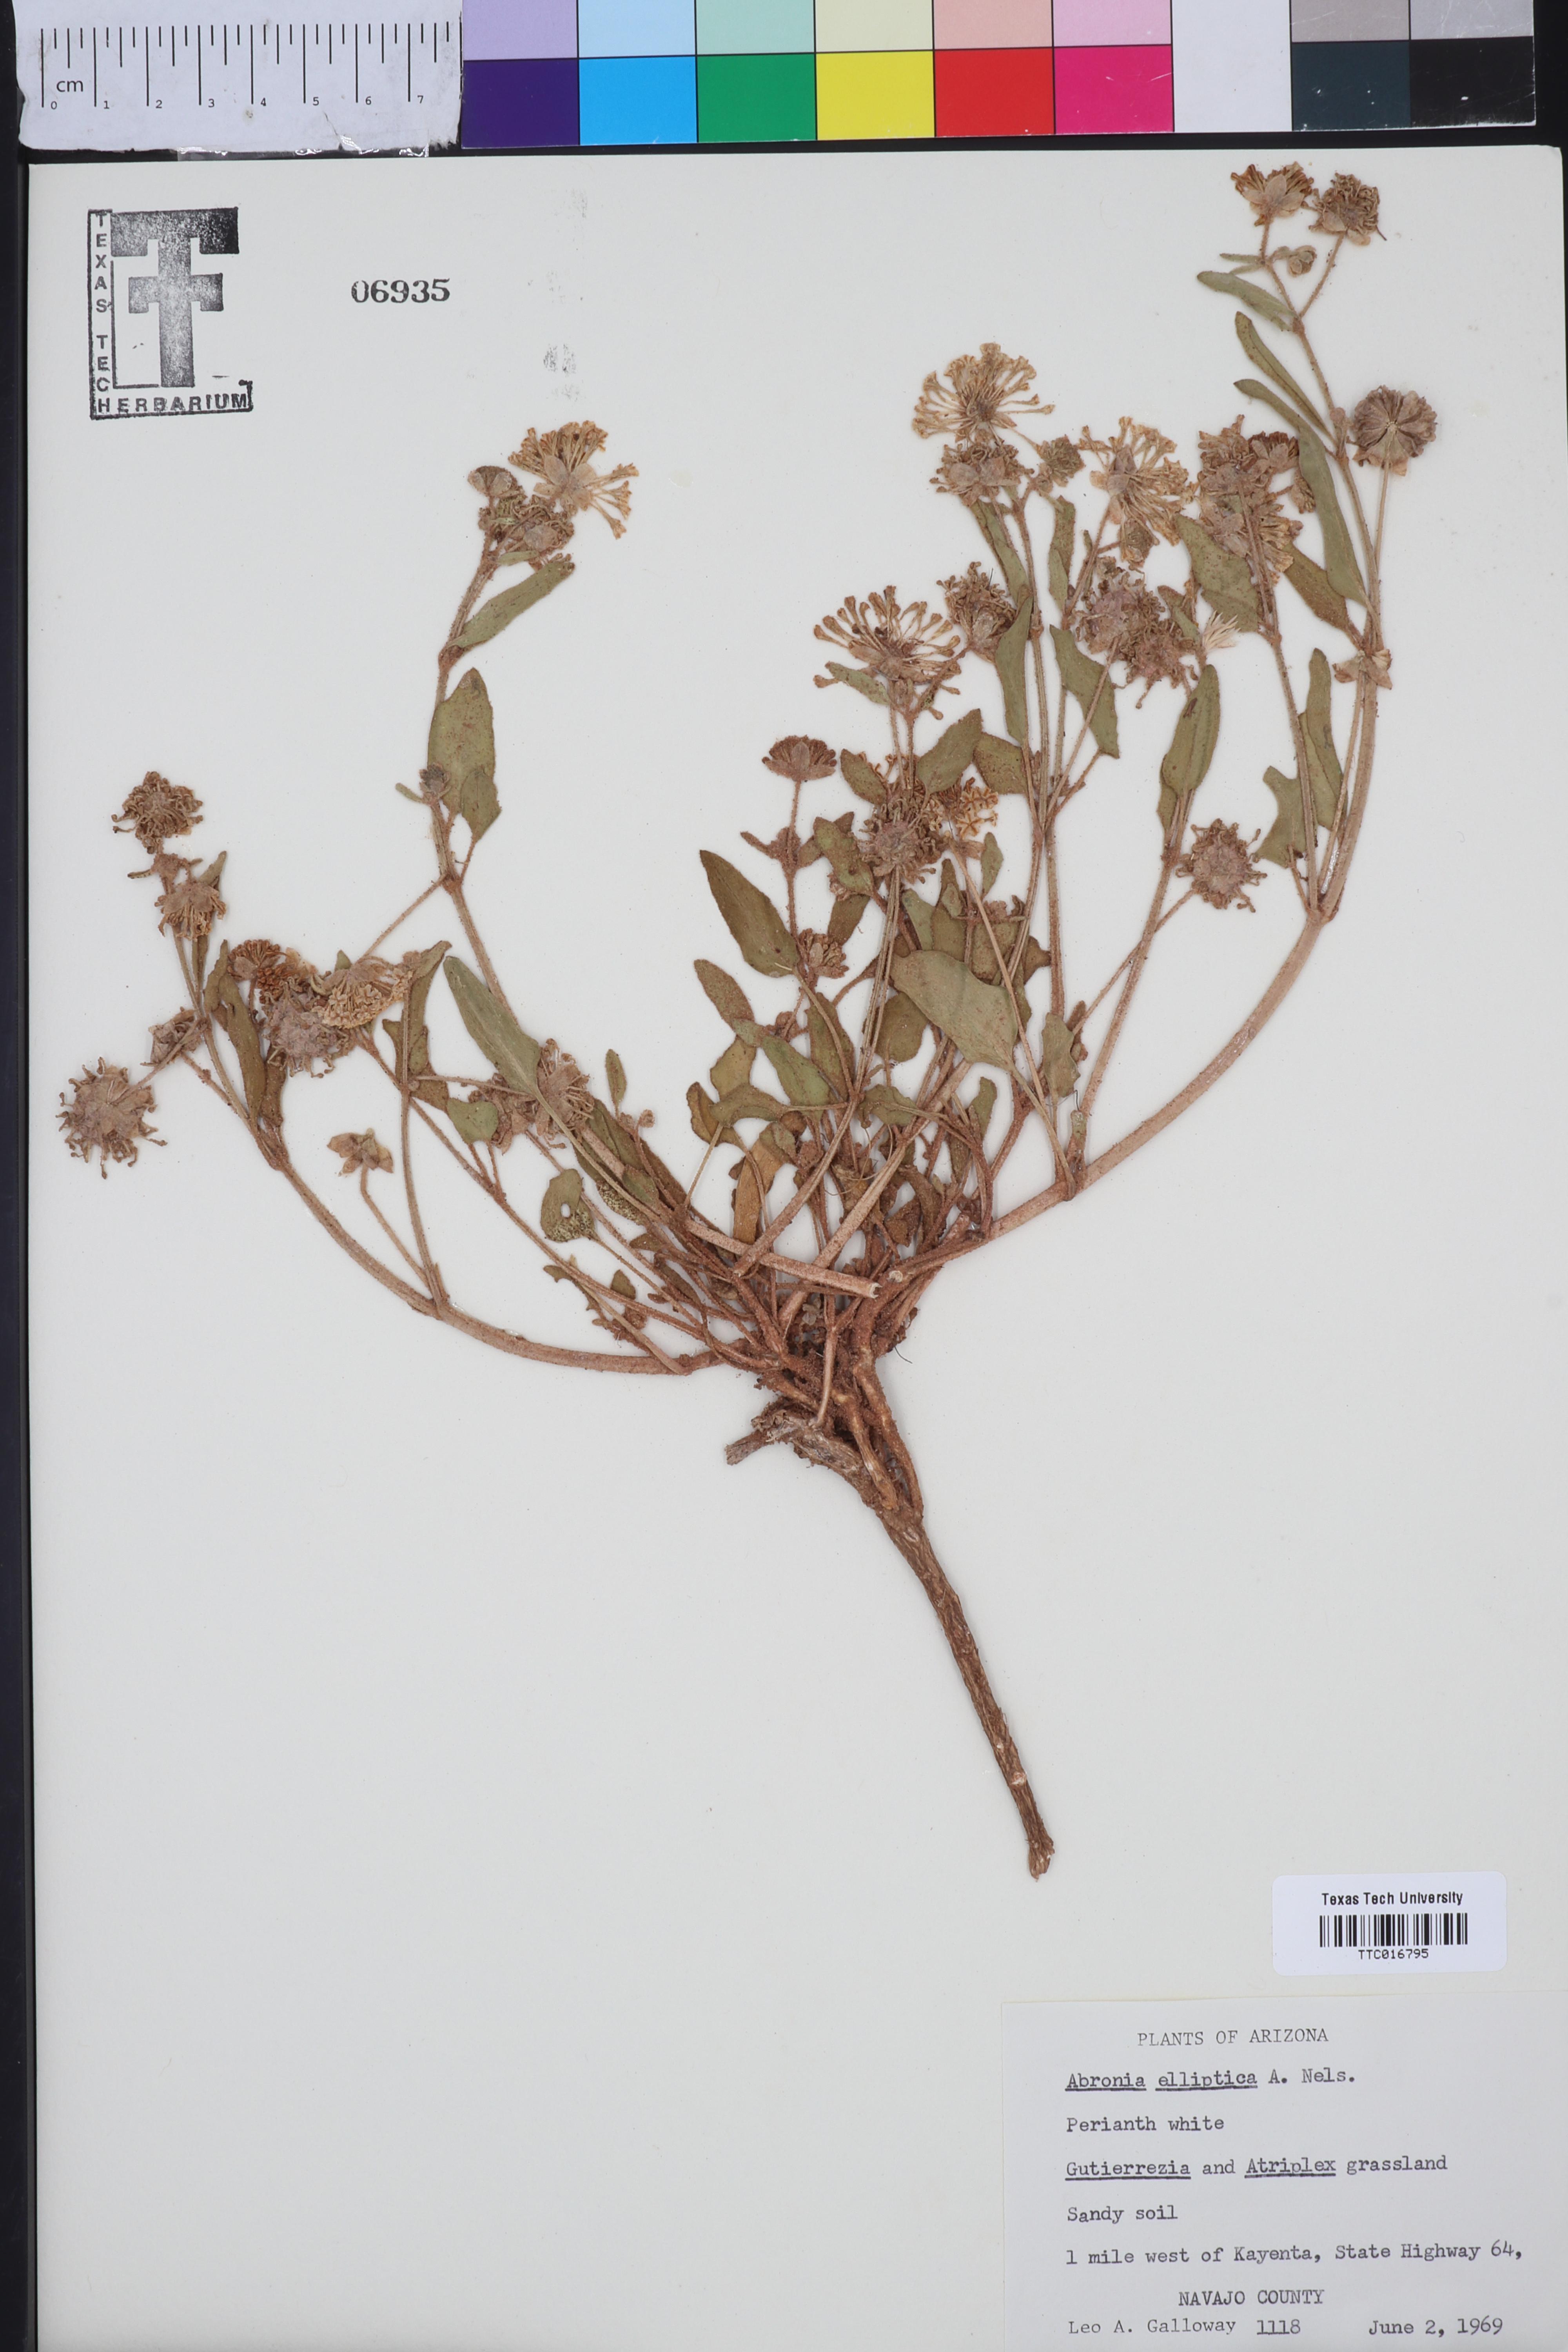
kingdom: Plantae
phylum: Tracheophyta
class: Magnoliopsida
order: Caryophyllales
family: Nyctaginaceae
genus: Abronia
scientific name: Abronia elliptica
